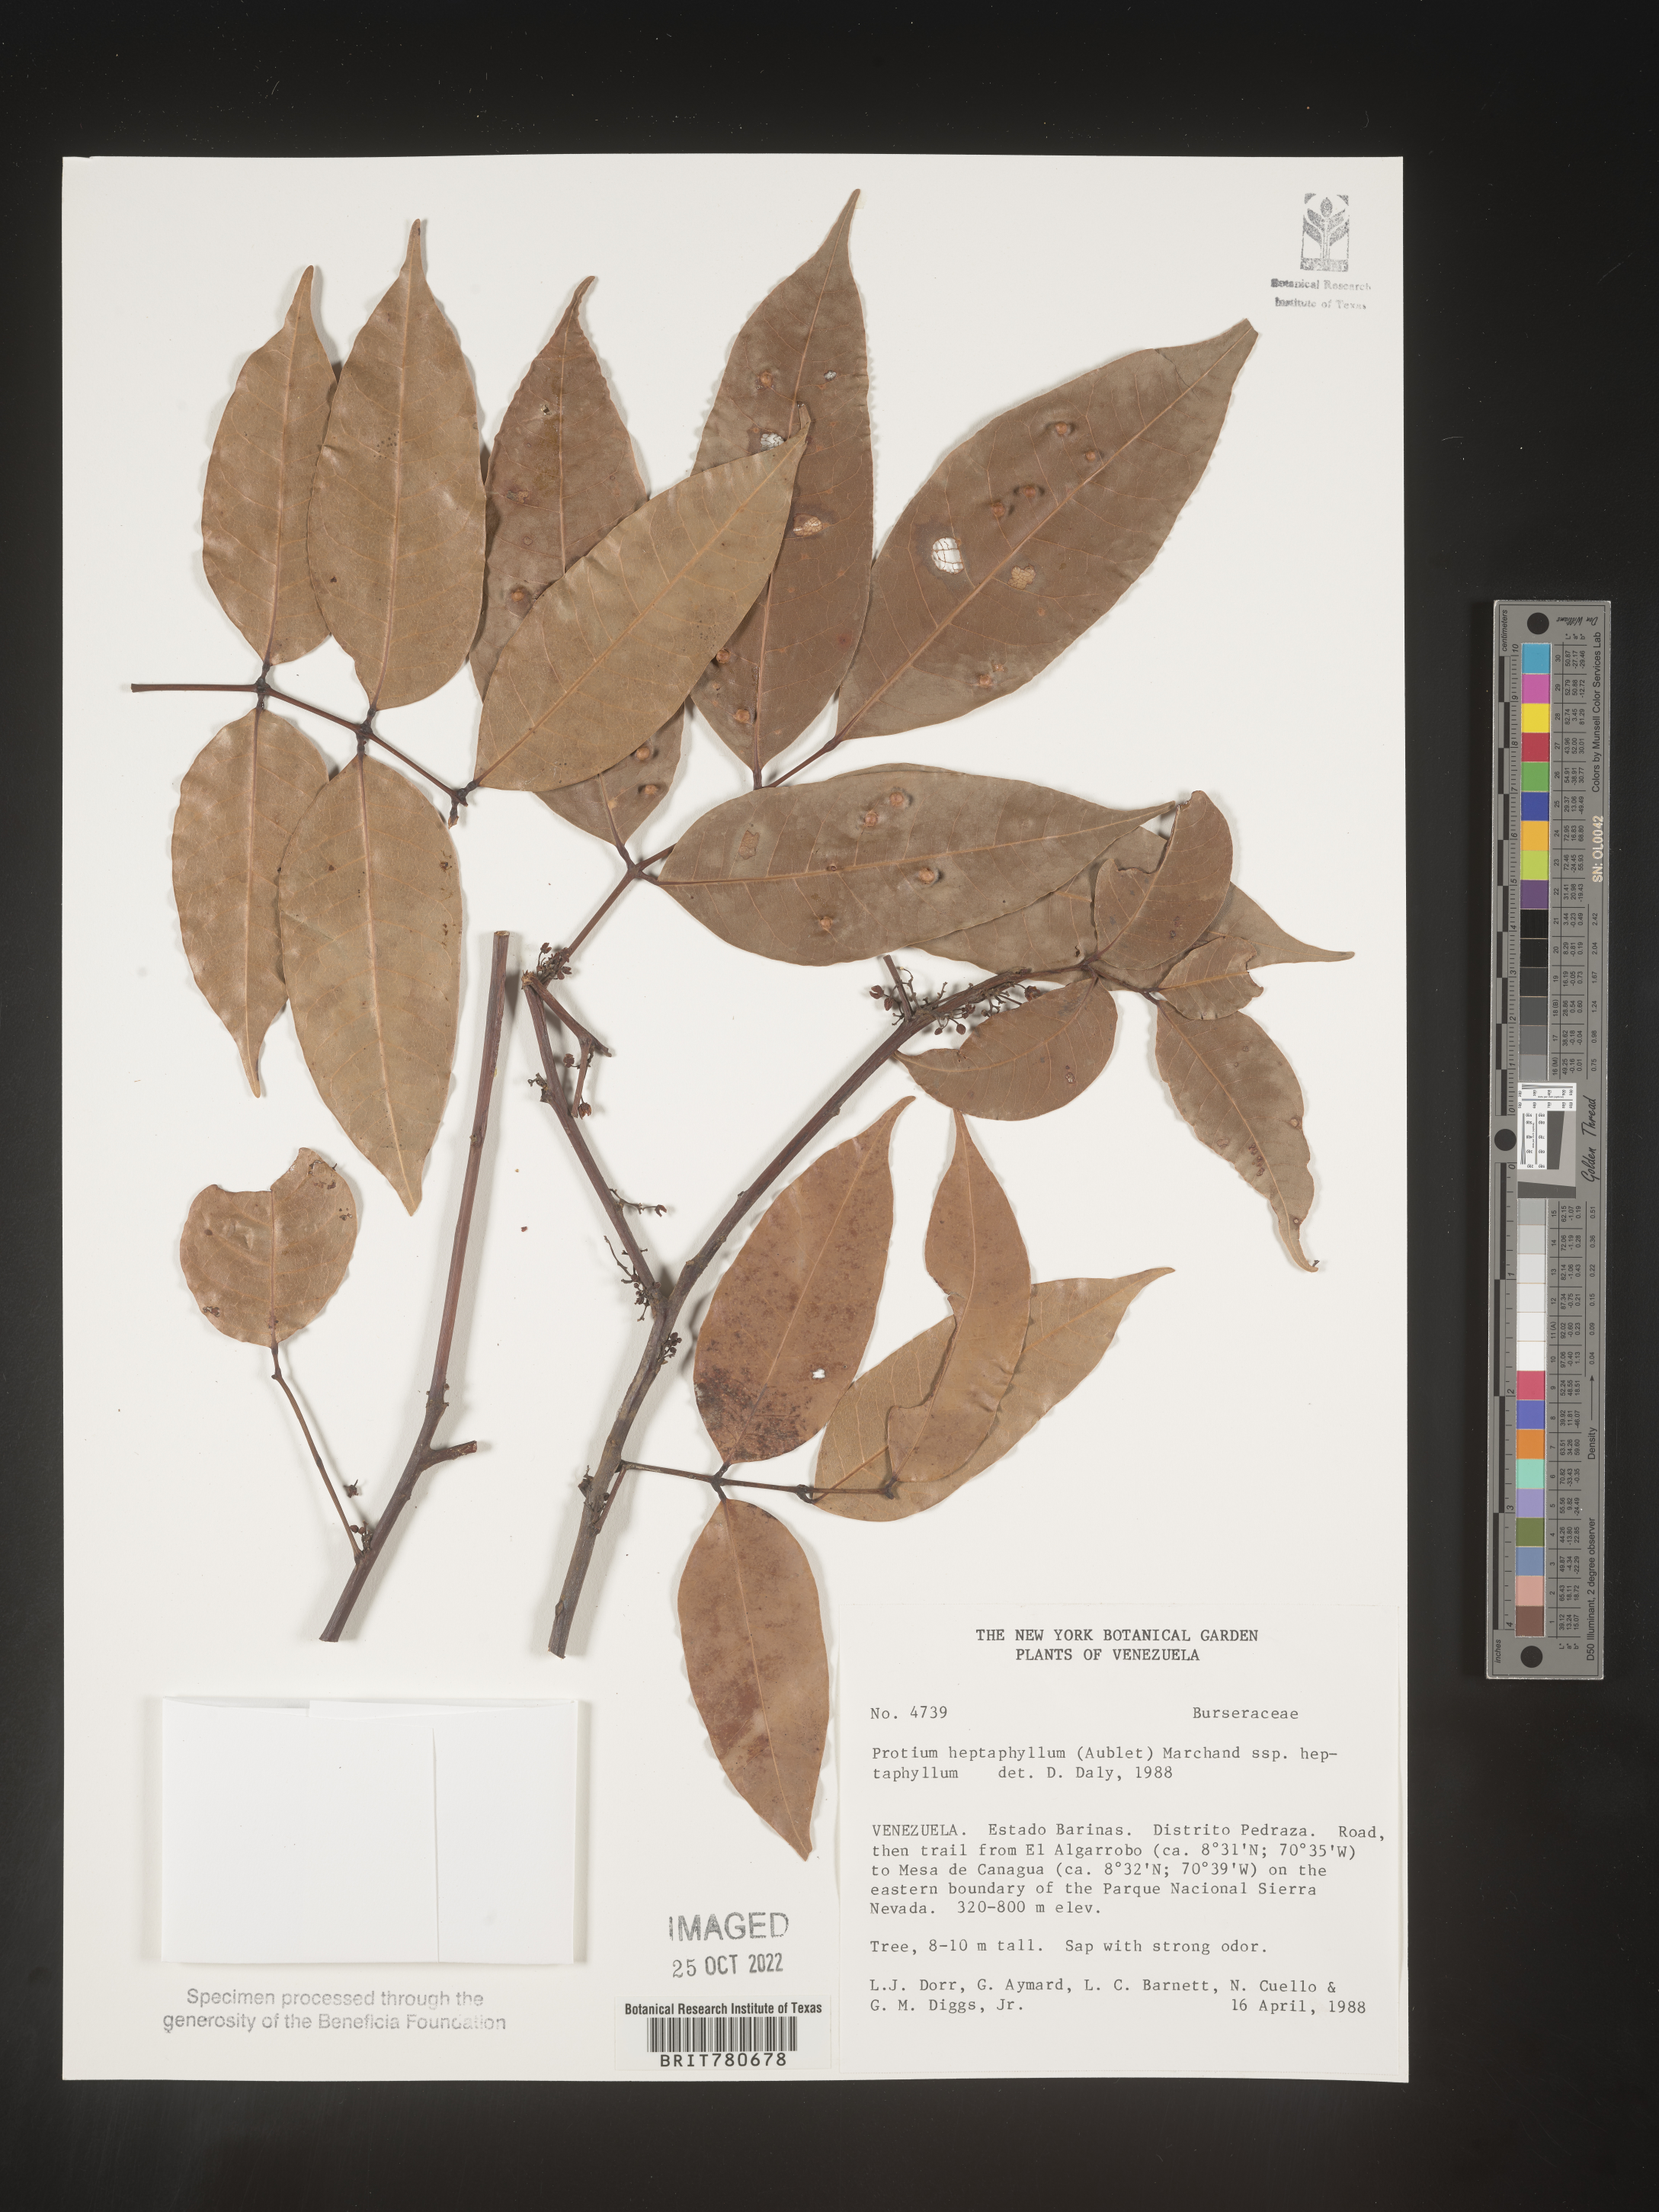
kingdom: Plantae
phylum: Tracheophyta
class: Magnoliopsida
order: Sapindales
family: Burseraceae
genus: Protium
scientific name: Protium
